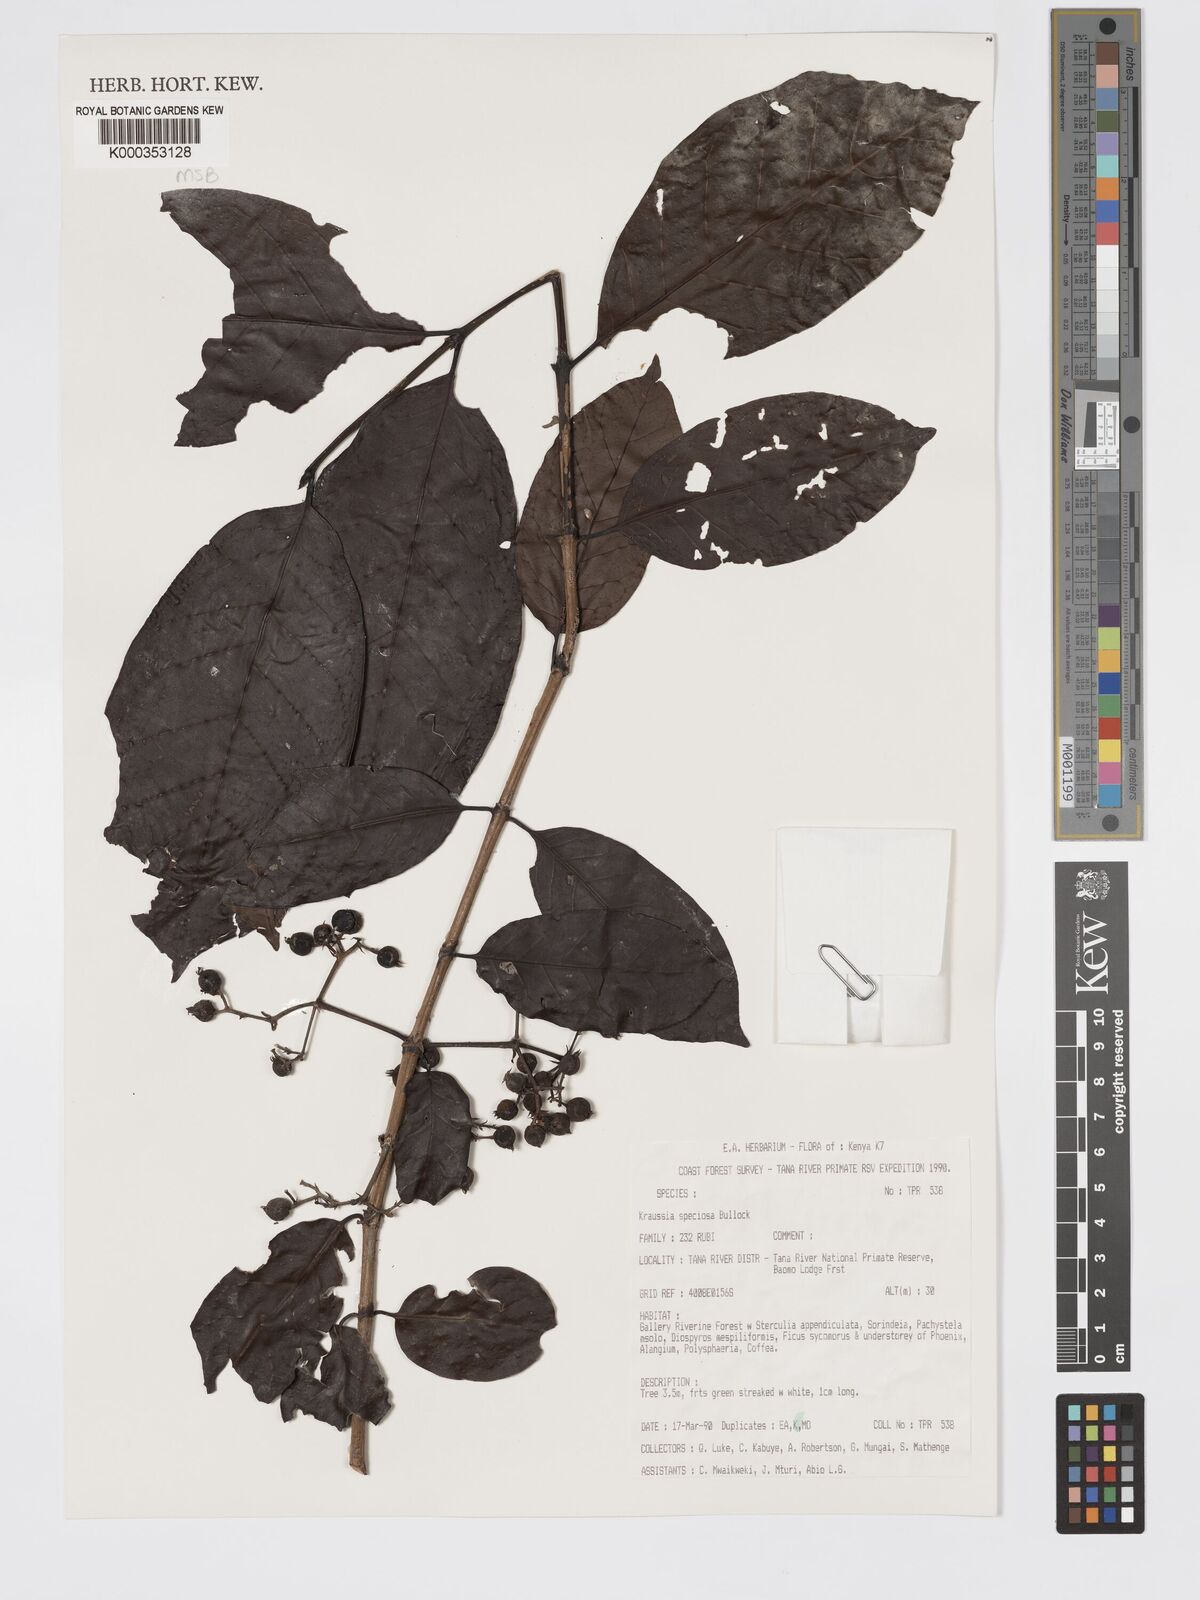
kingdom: Plantae
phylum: Tracheophyta
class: Magnoliopsida
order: Gentianales
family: Rubiaceae
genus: Kraussia
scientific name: Kraussia speciosa
